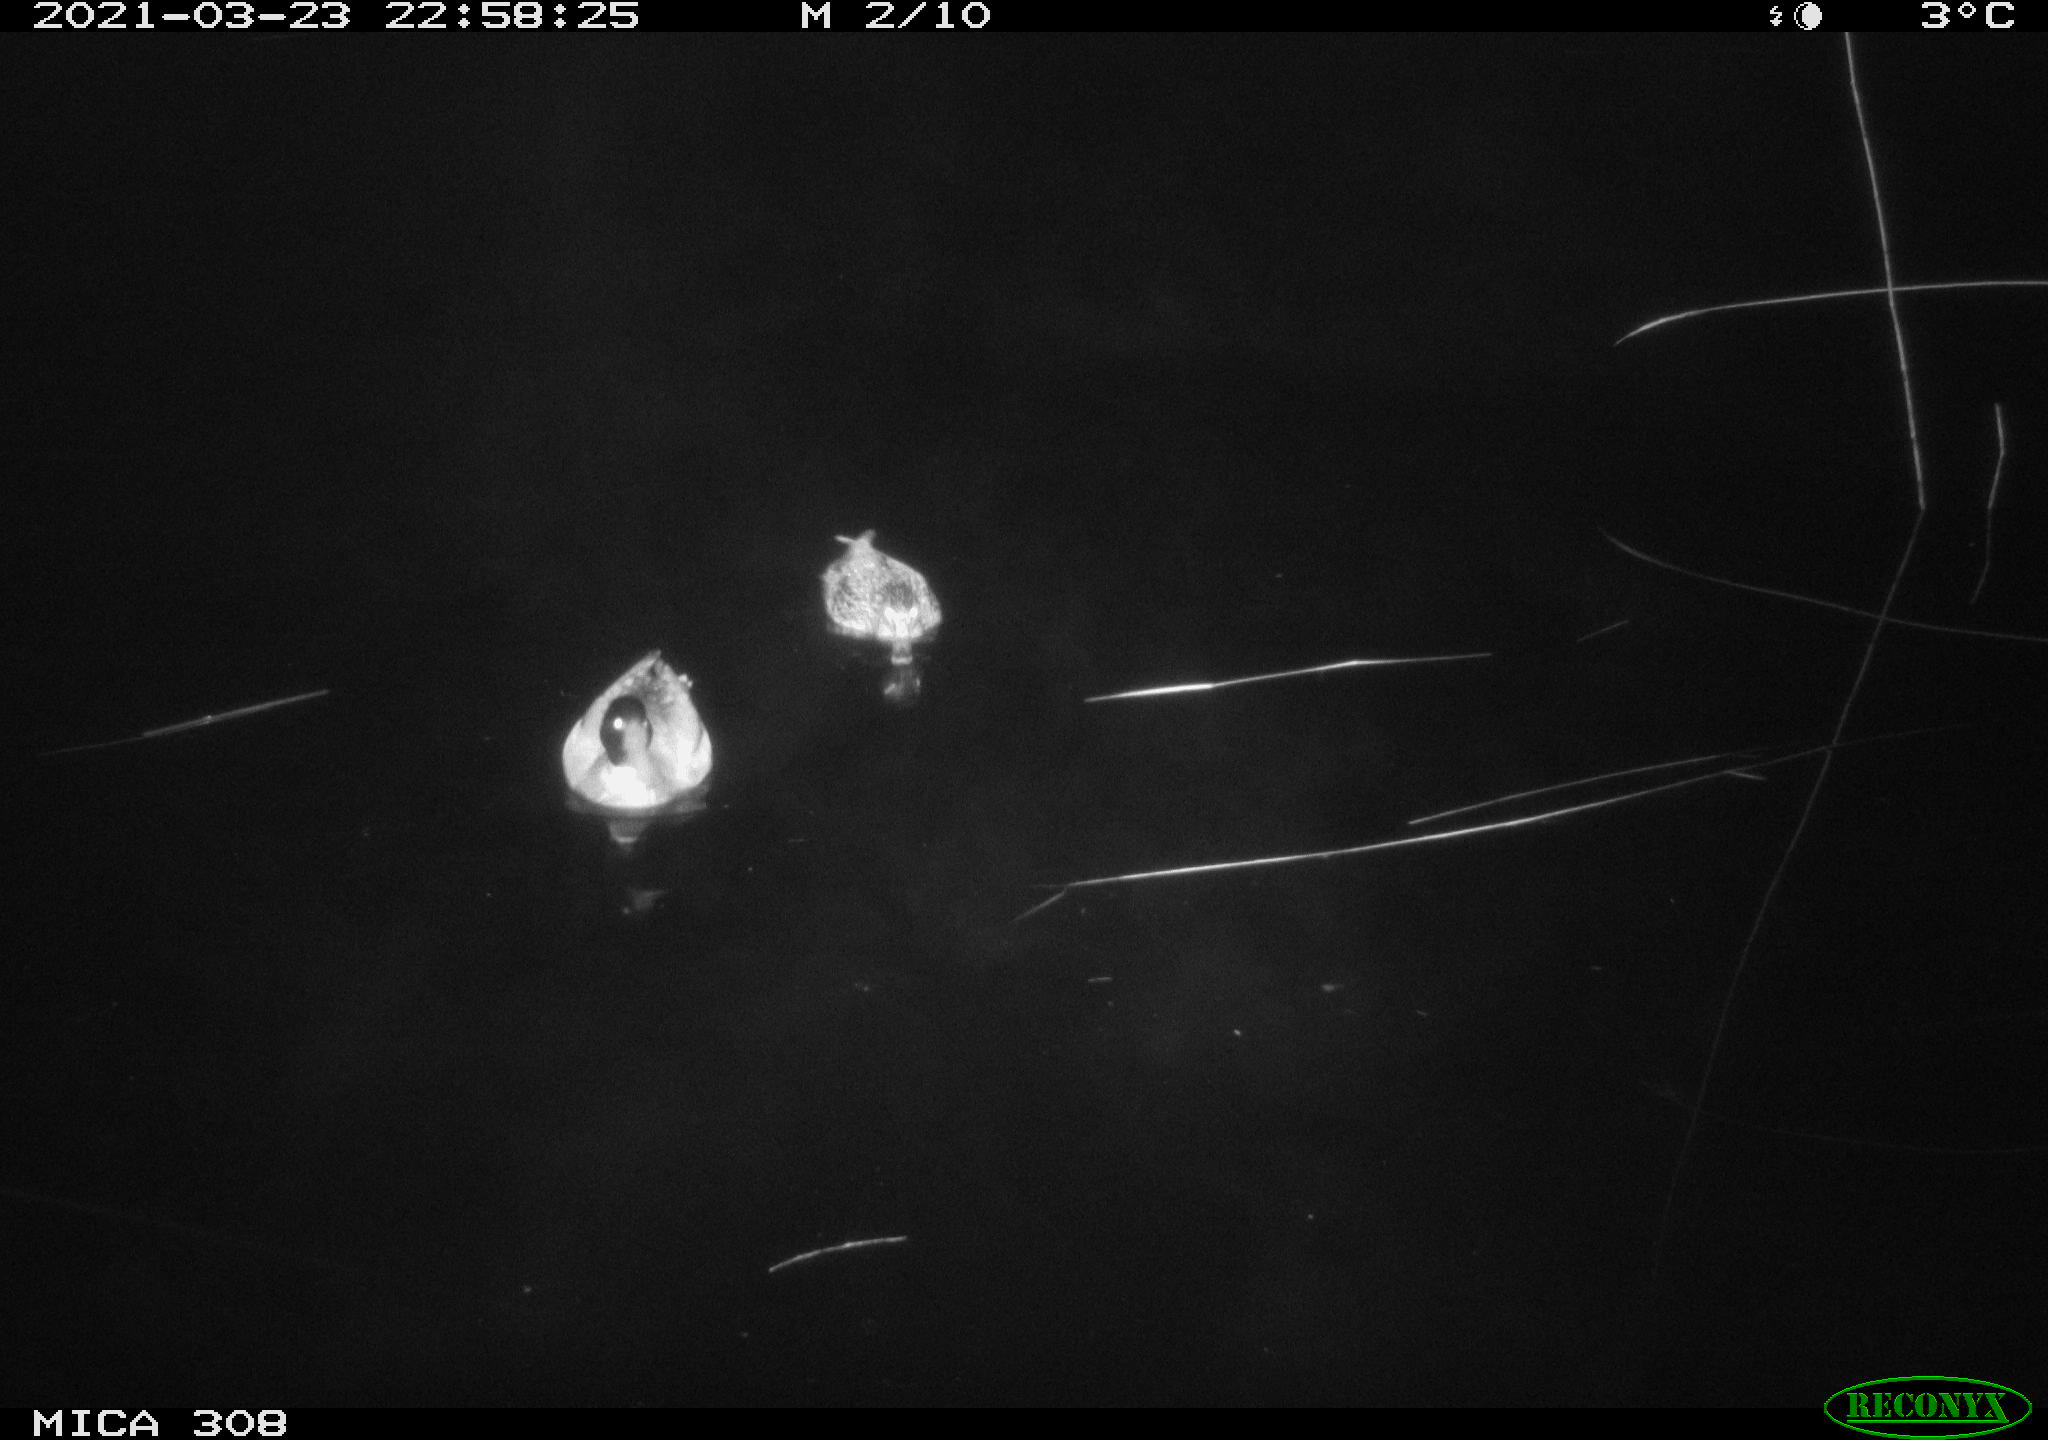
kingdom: Animalia
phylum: Chordata
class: Aves
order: Anseriformes
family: Anatidae
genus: Anas
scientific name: Anas platyrhynchos
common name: Mallard
